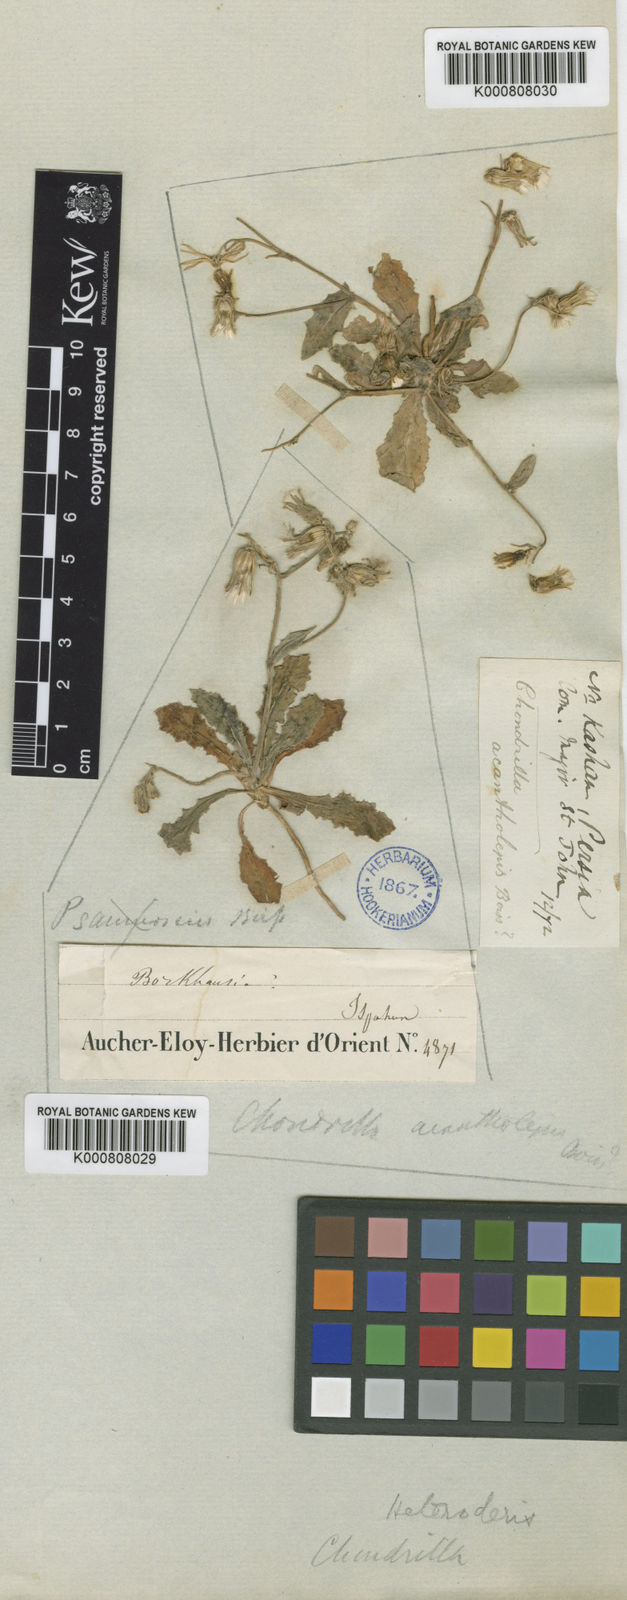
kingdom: Plantae
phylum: Tracheophyta
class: Magnoliopsida
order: Asterales
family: Asteraceae
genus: Heteroderis
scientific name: Heteroderis pusilla
